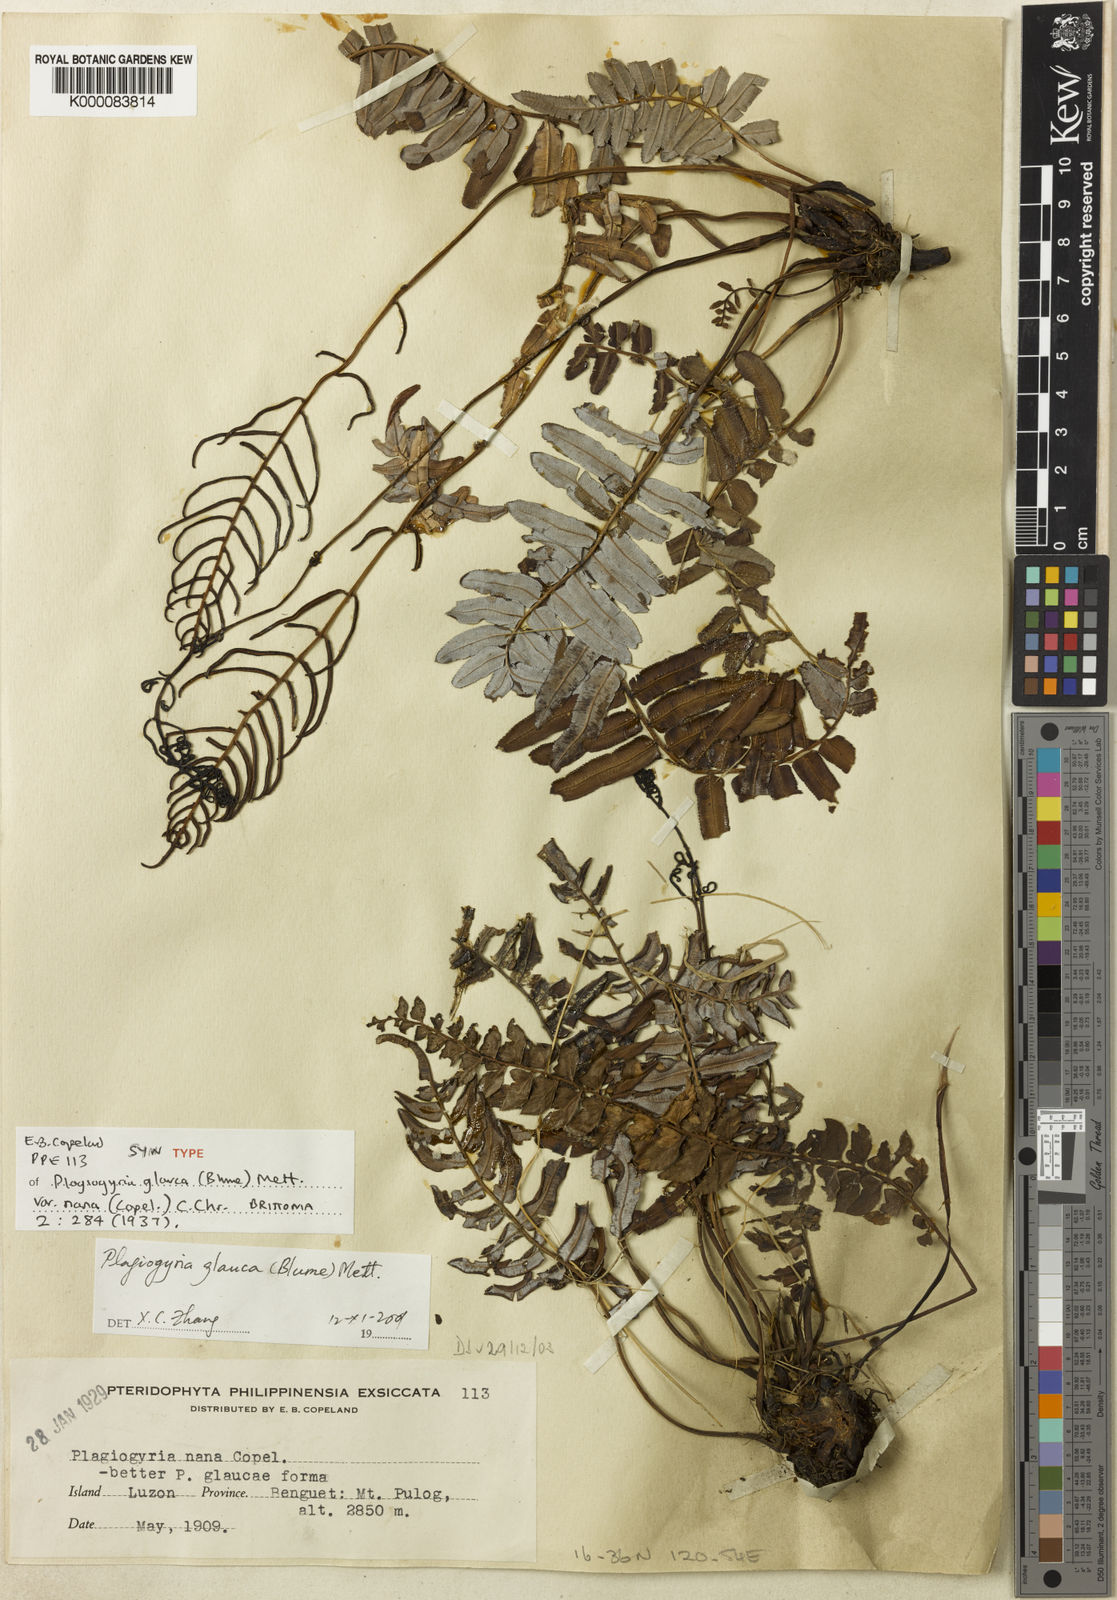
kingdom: Plantae
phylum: Tracheophyta
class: Polypodiopsida
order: Cyatheales
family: Plagiogyriaceae
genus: Plagiogyria
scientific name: Plagiogyria glauca
